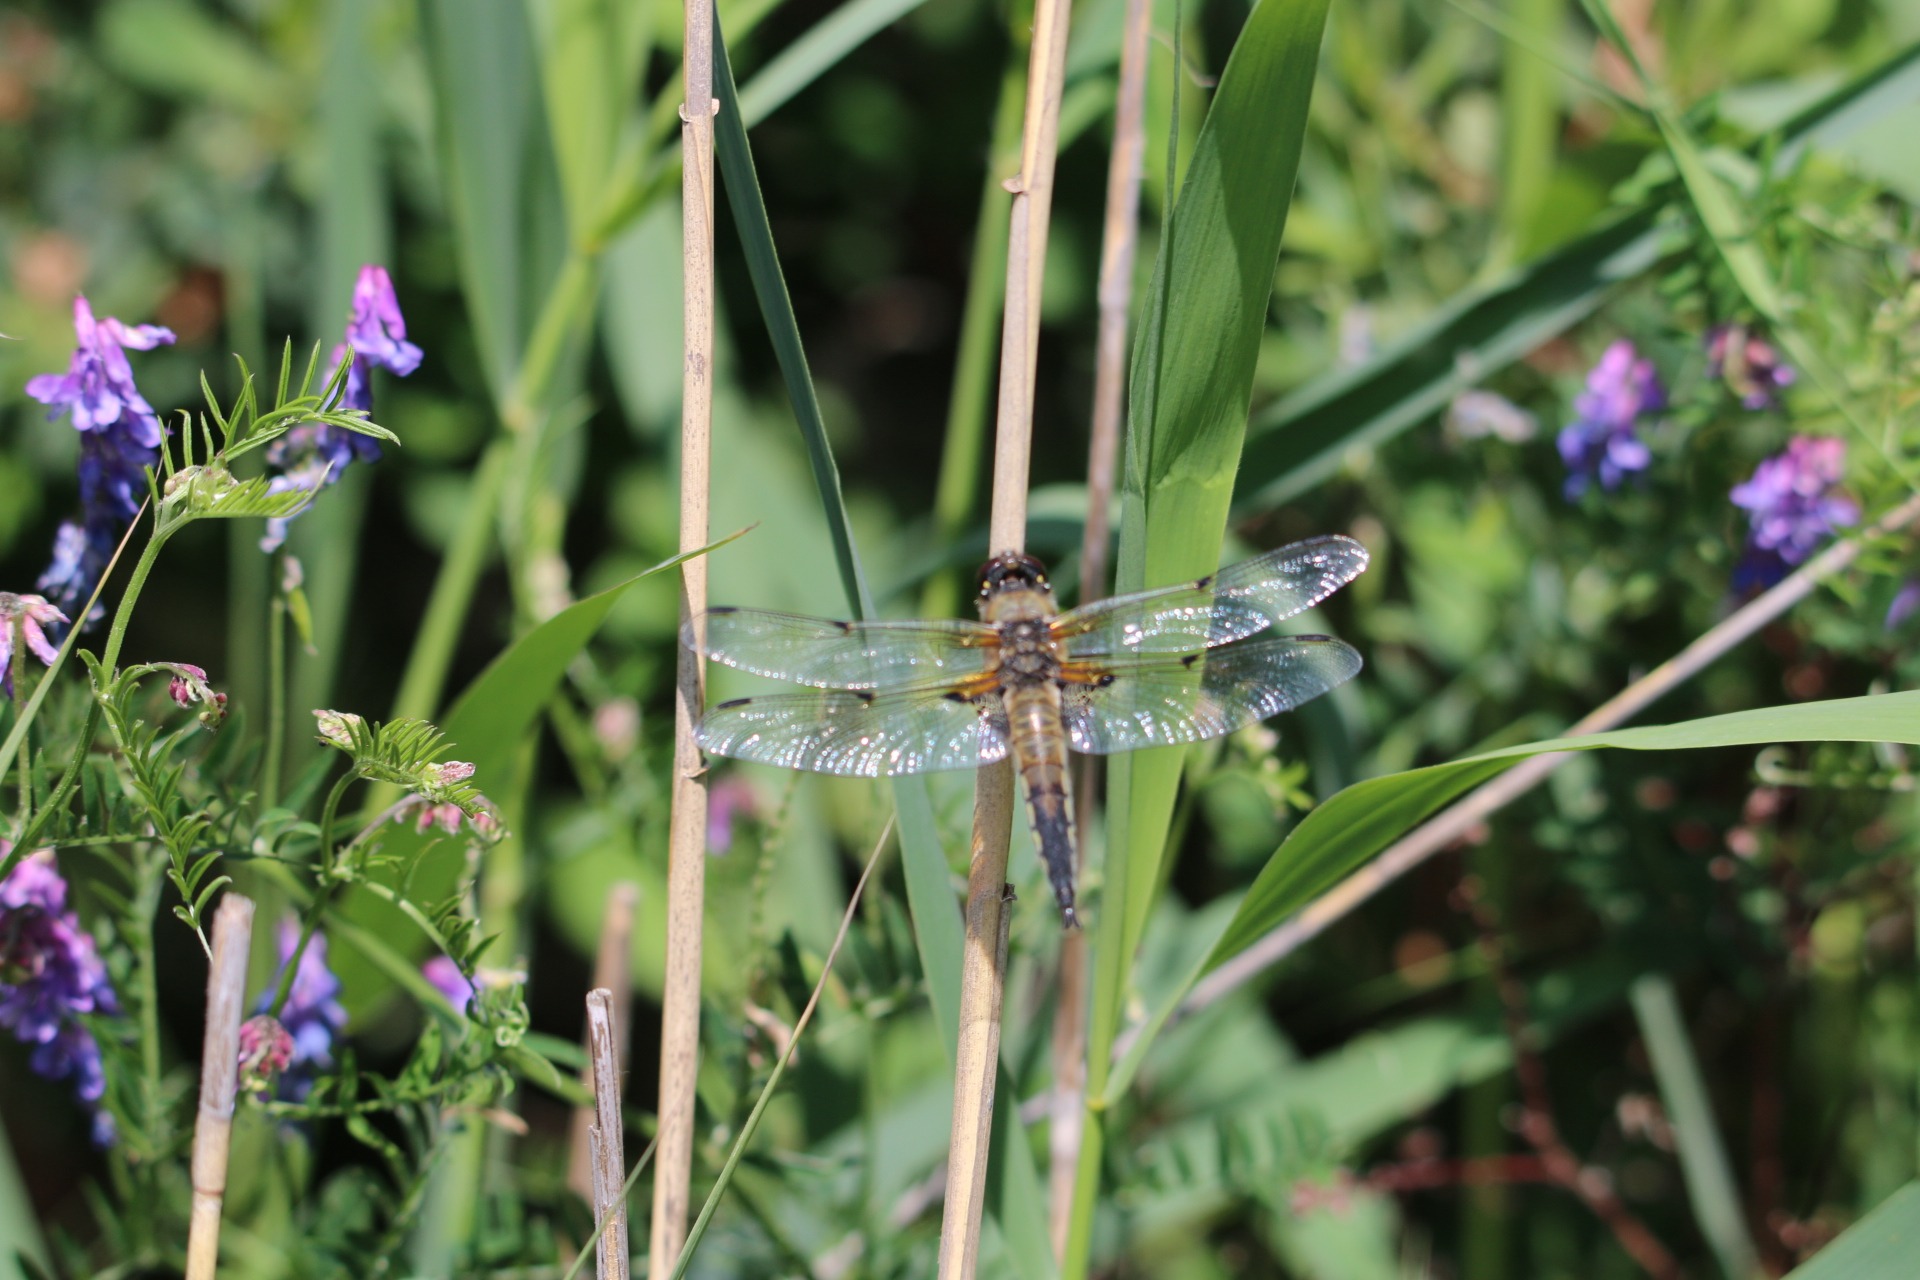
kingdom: Animalia
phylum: Arthropoda
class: Insecta
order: Odonata
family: Libellulidae
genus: Libellula
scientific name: Libellula quadrimaculata
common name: Fireplettet libel
